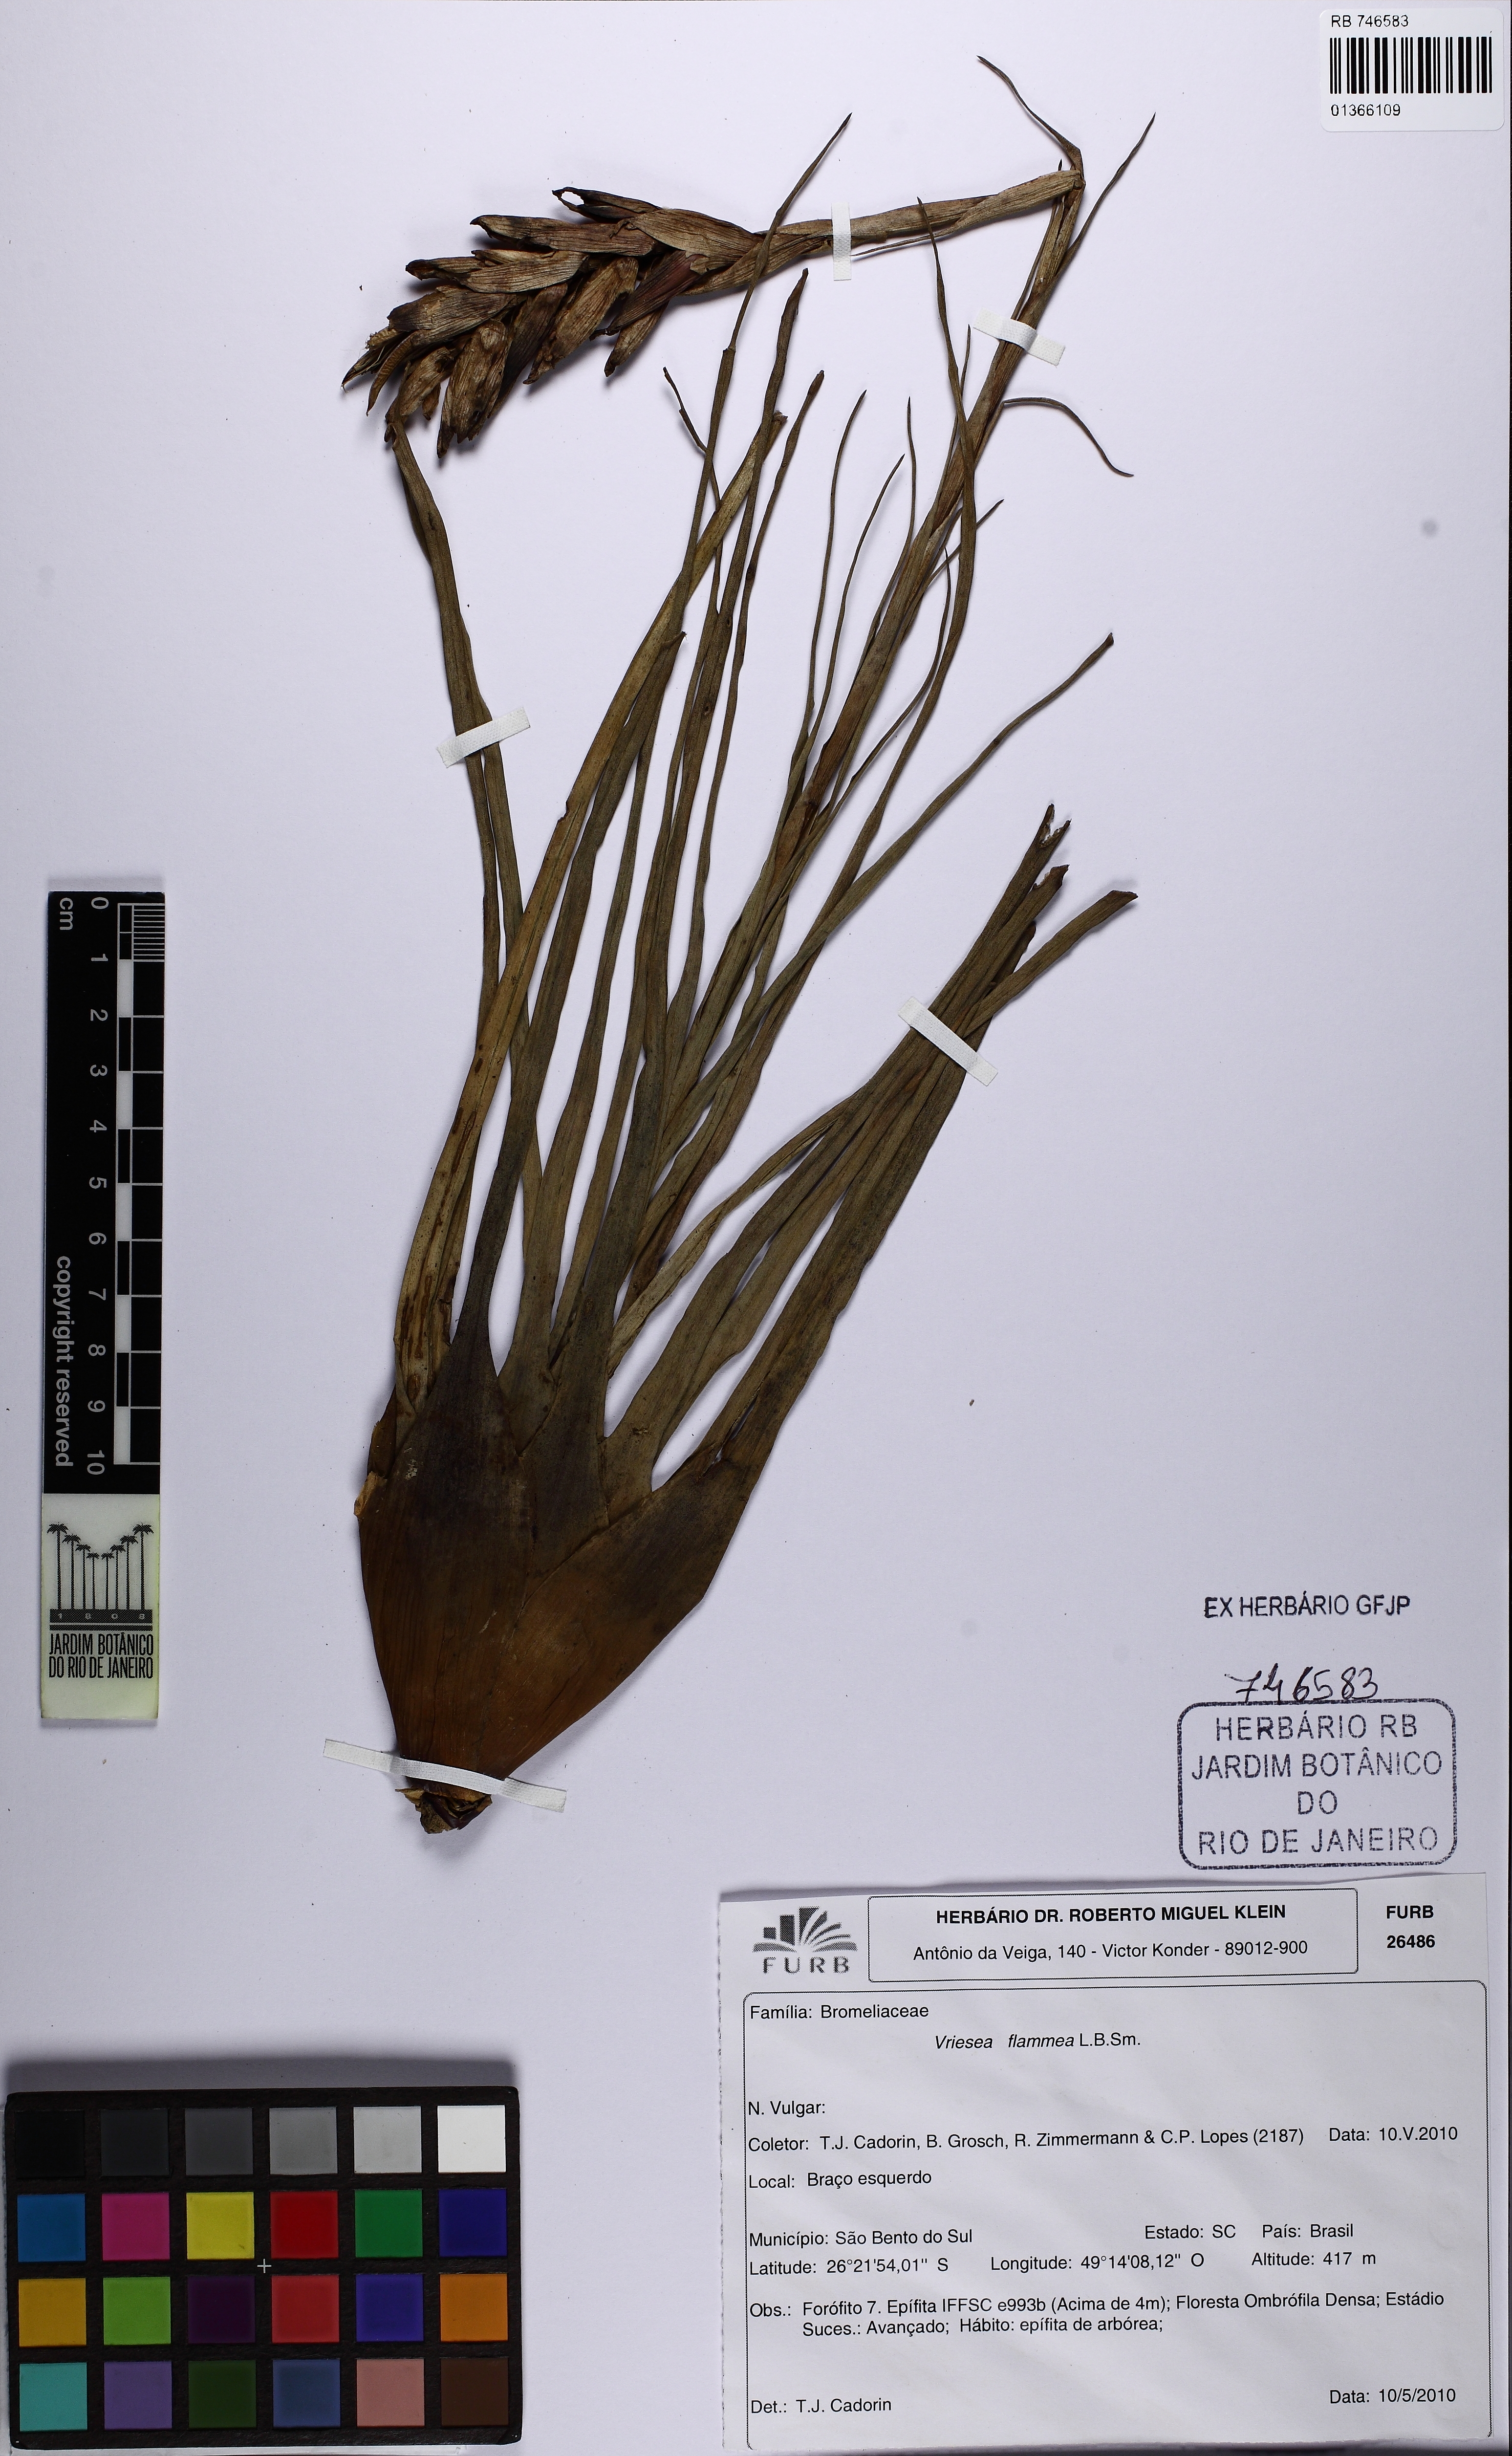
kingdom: Plantae
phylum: Tracheophyta
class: Liliopsida
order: Poales
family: Bromeliaceae
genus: Vriesea
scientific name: Vriesea flammea
